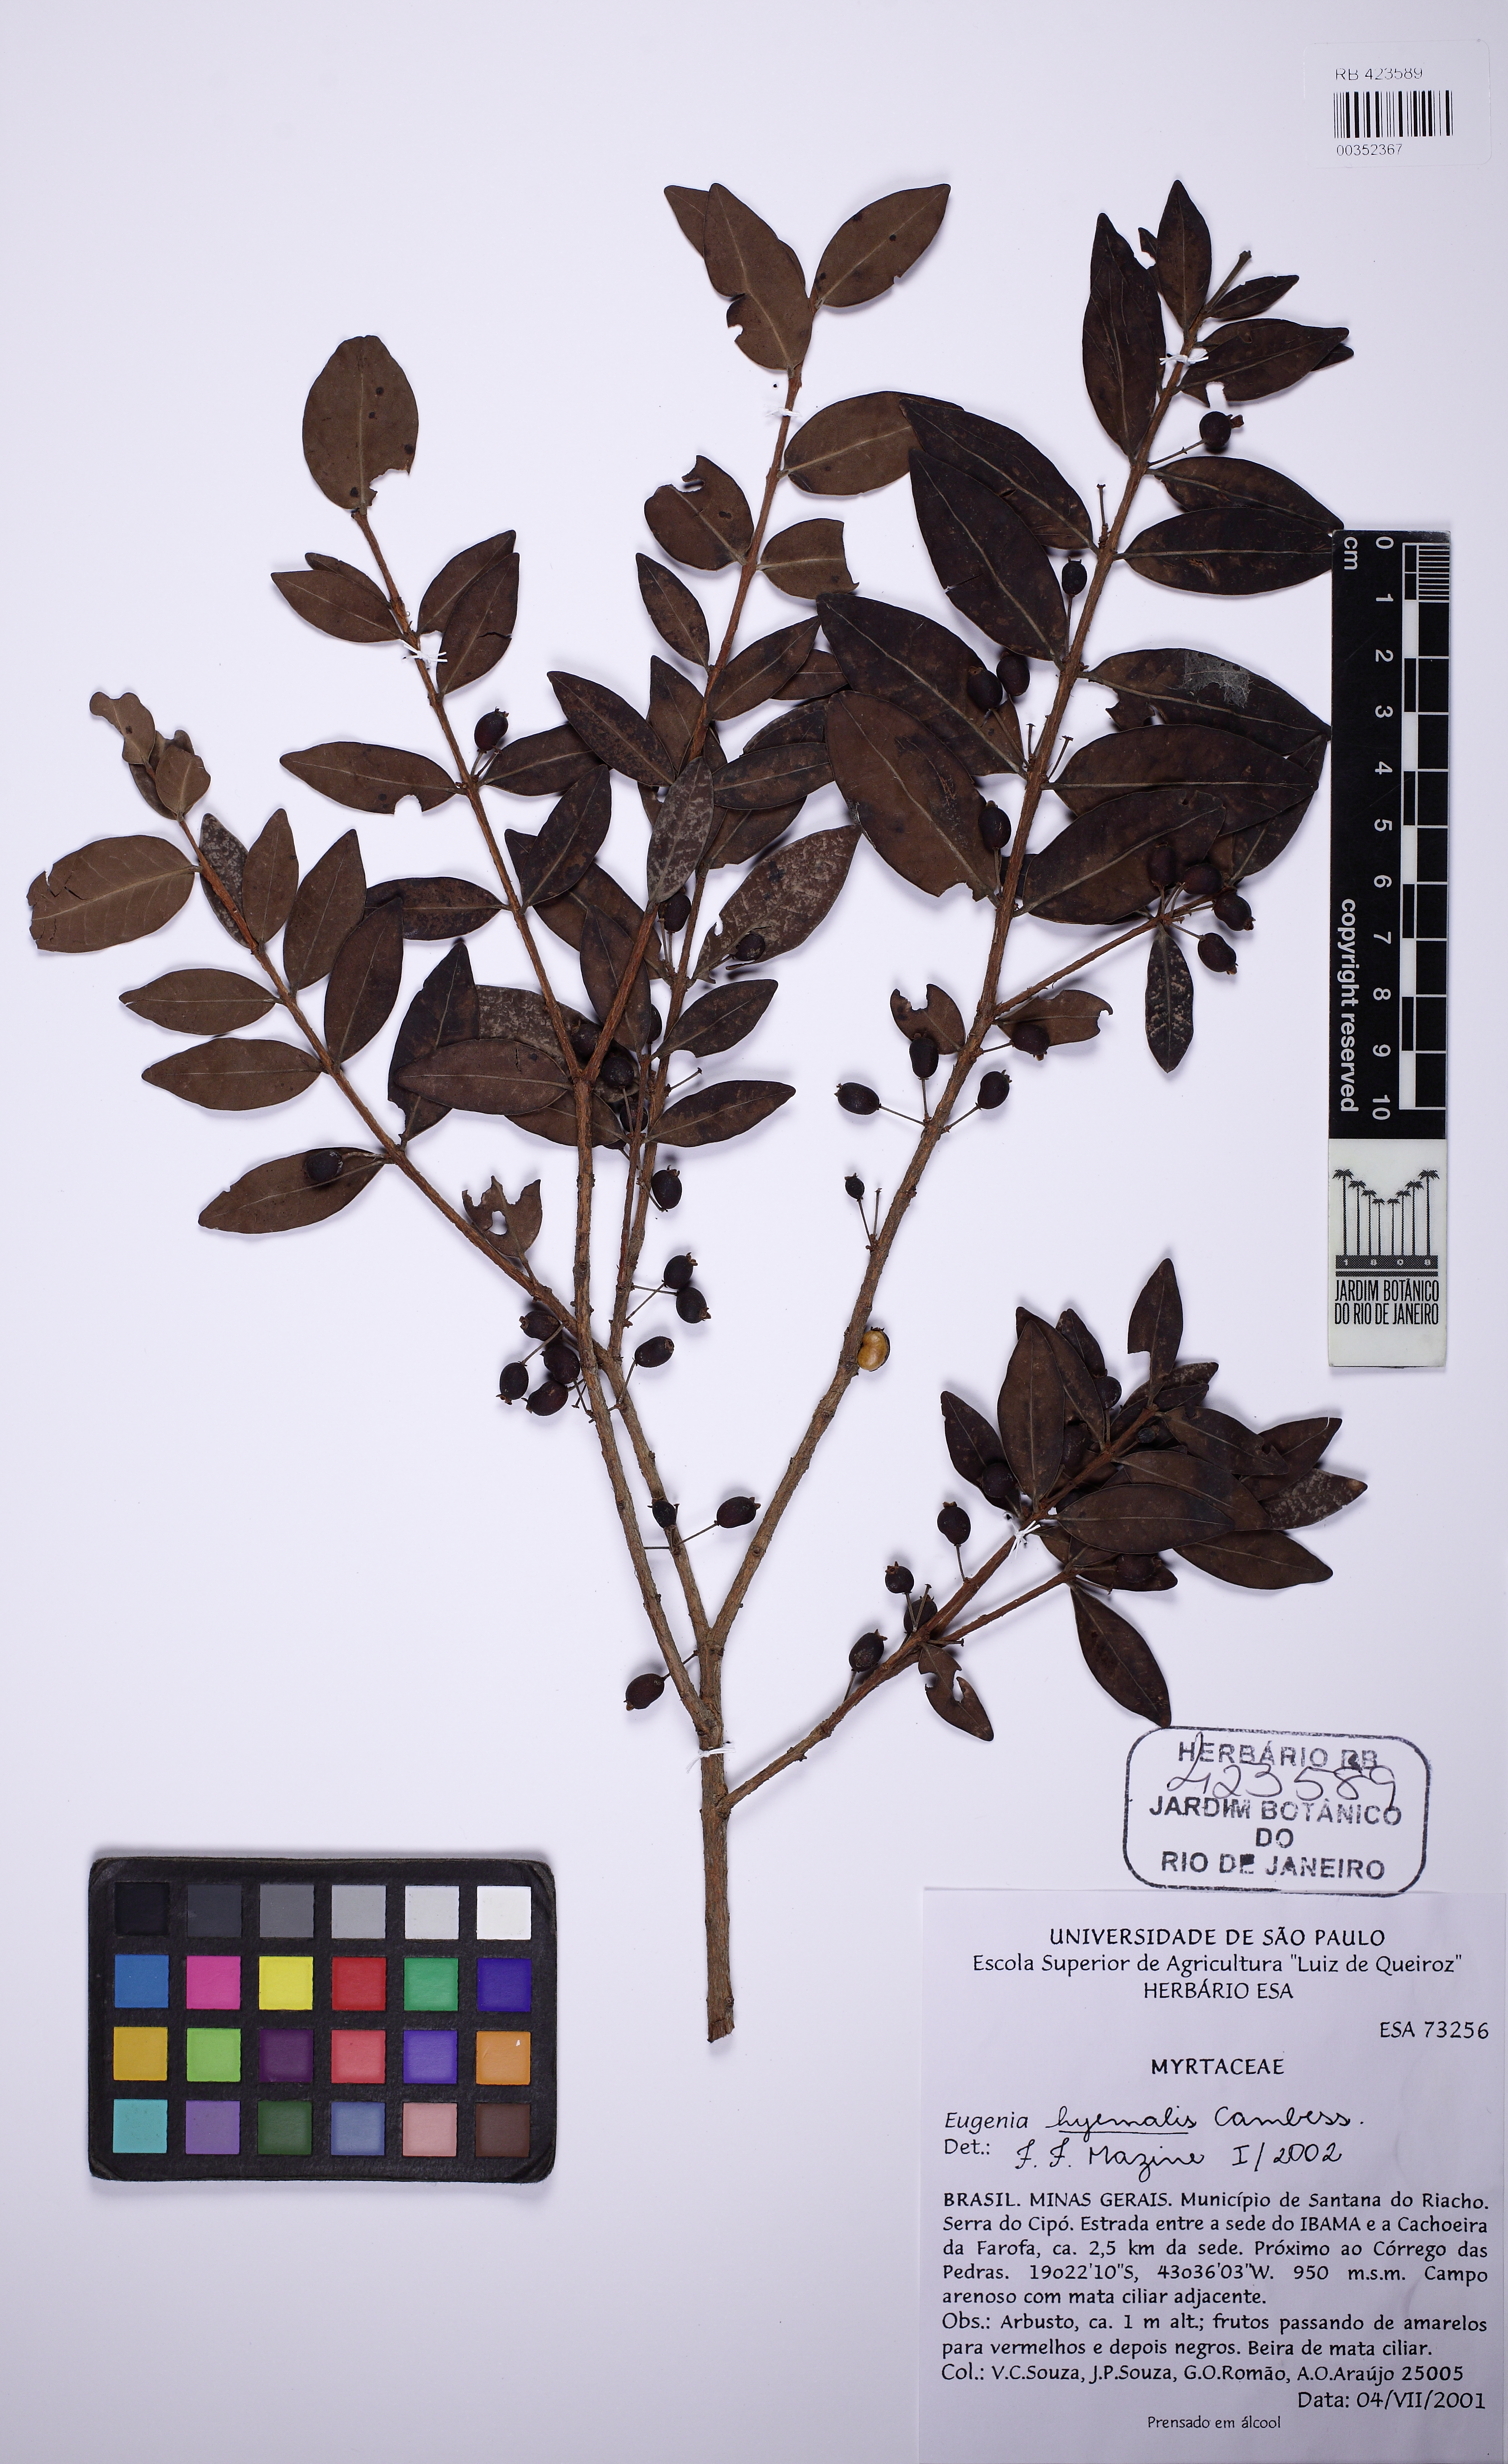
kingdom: Plantae
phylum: Tracheophyta
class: Magnoliopsida
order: Myrtales
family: Myrtaceae
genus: Eugenia
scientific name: Eugenia hiemalis
